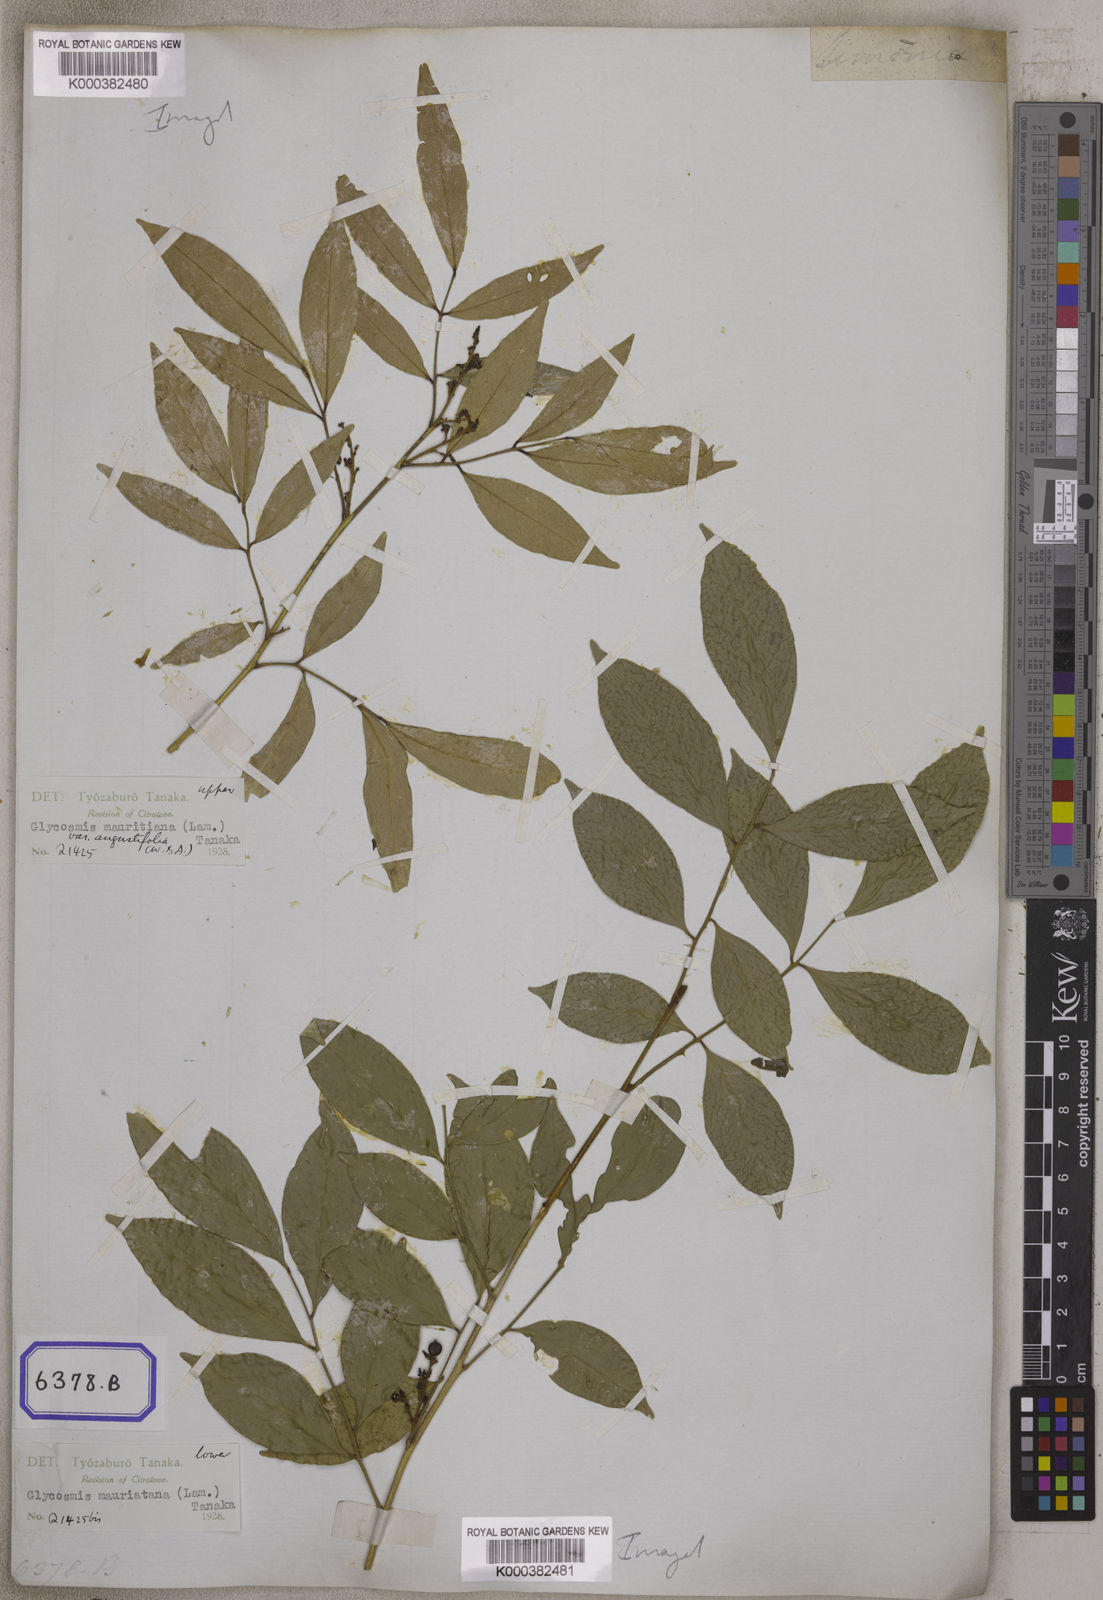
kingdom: Plantae
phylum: Tracheophyta
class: Magnoliopsida
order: Sapindales
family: Rutaceae
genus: Glycosmis
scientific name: Glycosmis mauritiana
